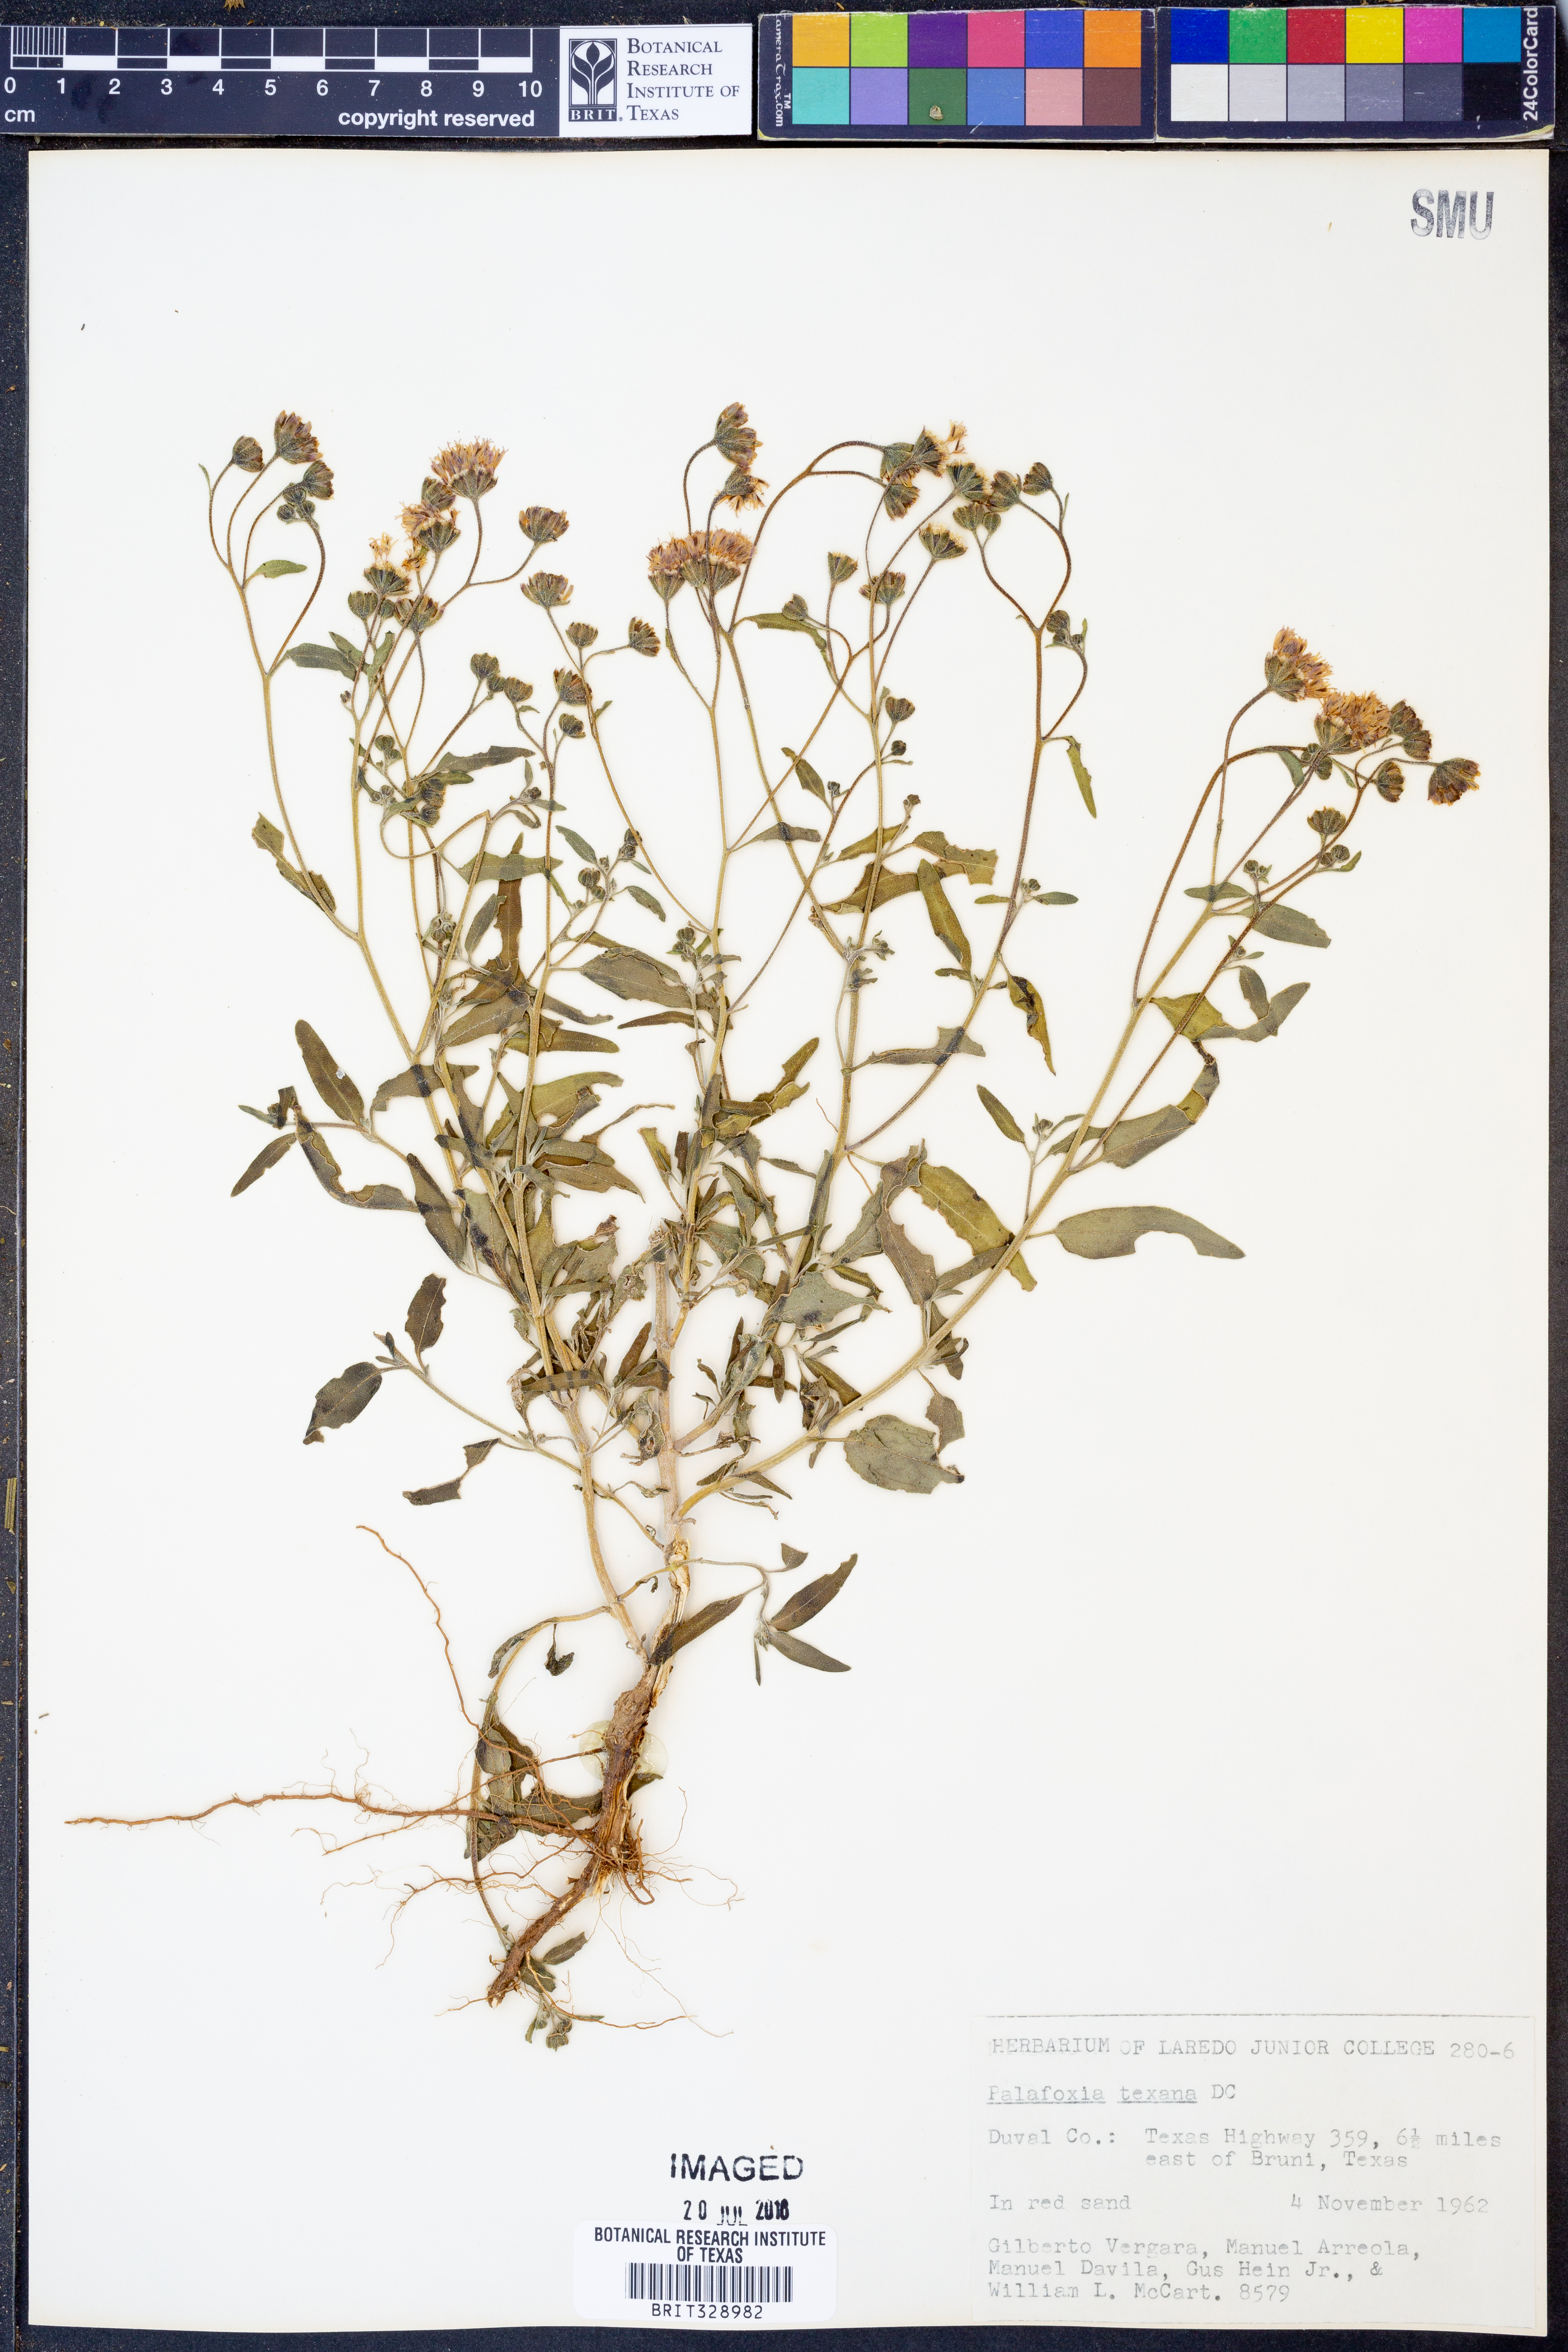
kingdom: Plantae
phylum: Tracheophyta
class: Magnoliopsida
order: Asterales
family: Asteraceae
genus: Palafoxia
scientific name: Palafoxia texana
